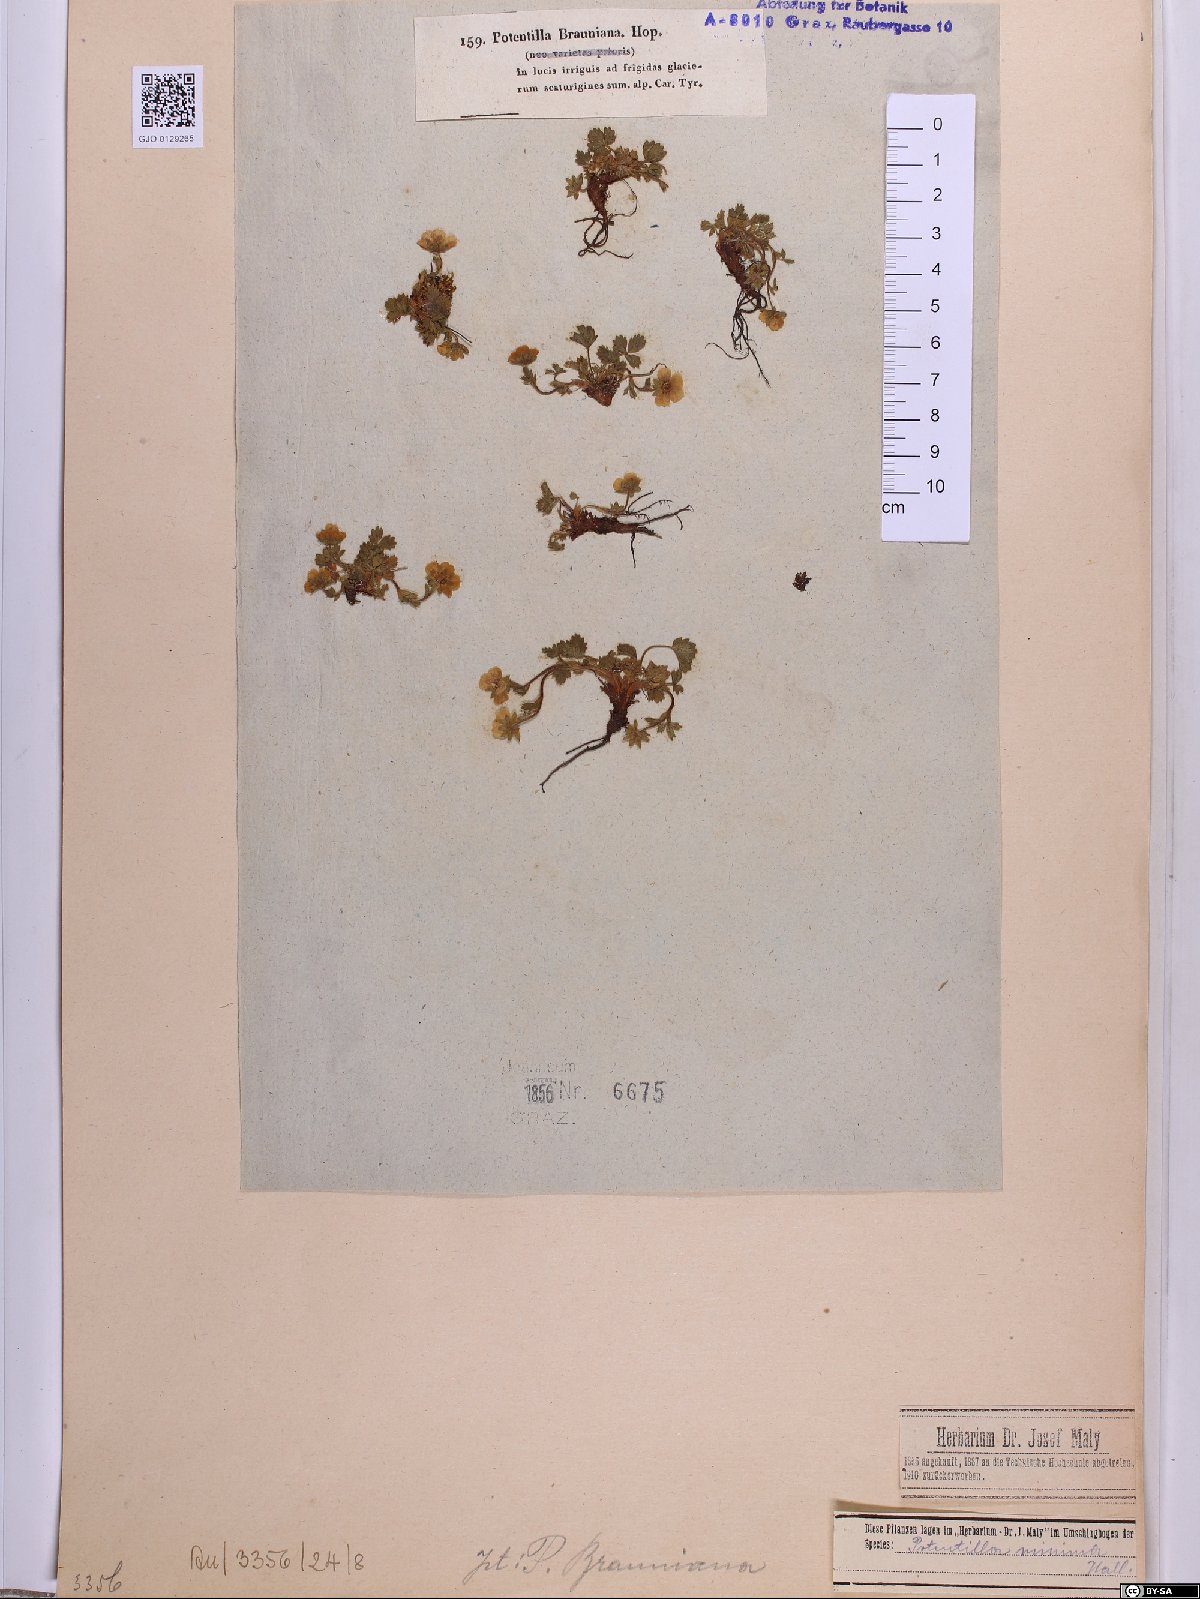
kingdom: Plantae
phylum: Tracheophyta
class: Magnoliopsida
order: Rosales
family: Rosaceae
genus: Potentilla
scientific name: Potentilla brauneana
